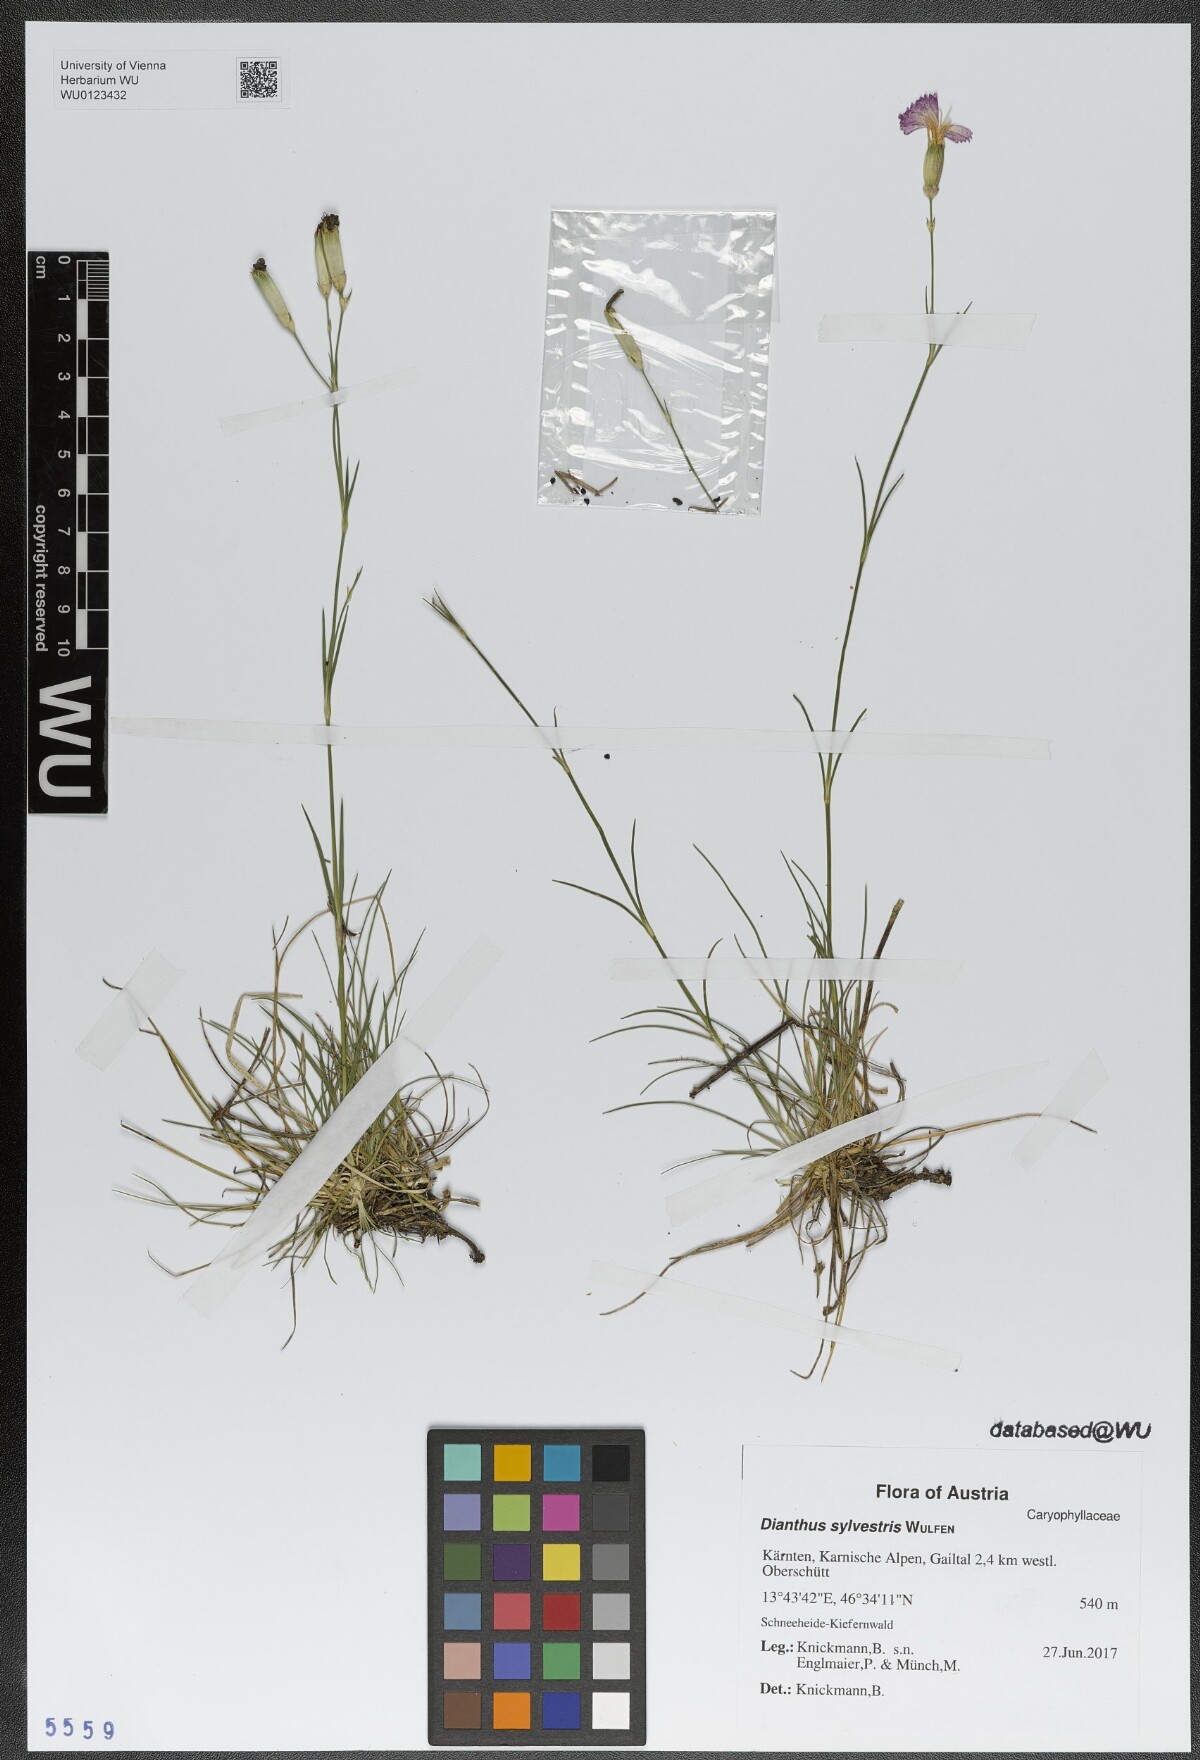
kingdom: Plantae
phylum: Tracheophyta
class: Magnoliopsida
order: Caryophyllales
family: Caryophyllaceae
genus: Dianthus
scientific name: Dianthus sylvestris
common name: Wood pink
